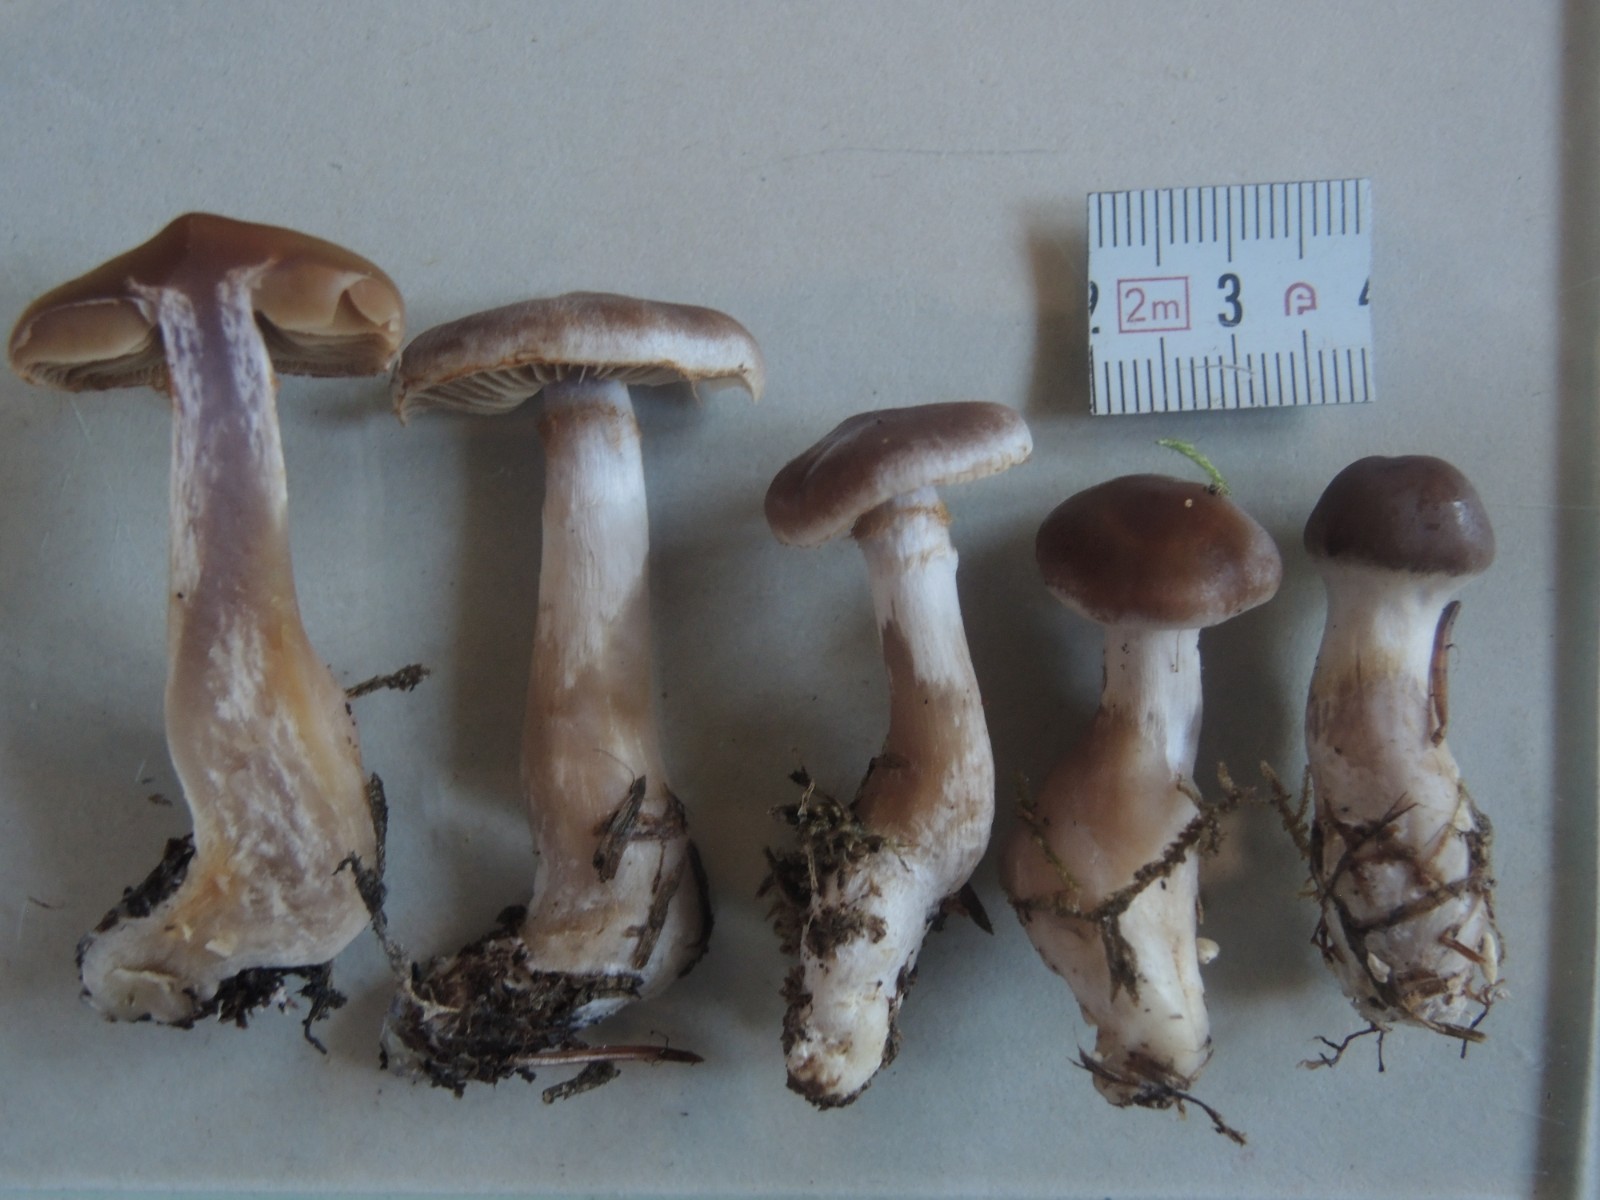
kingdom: Fungi
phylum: Basidiomycota
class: Agaricomycetes
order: Agaricales
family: Cortinariaceae
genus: Cortinarius
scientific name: Cortinarius
